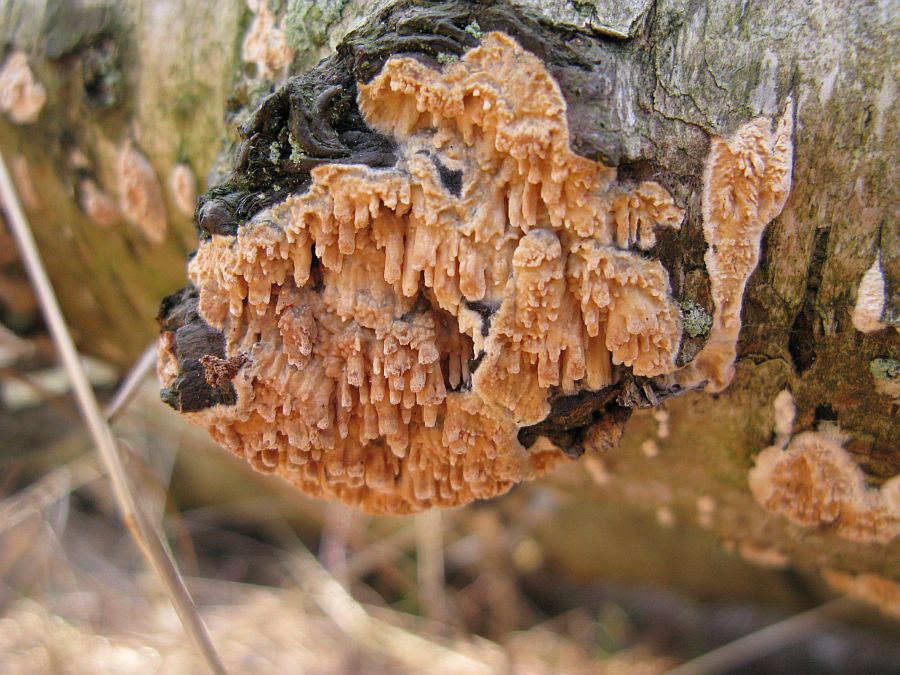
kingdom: Fungi
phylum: Basidiomycota
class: Agaricomycetes
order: Hymenochaetales
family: Schizoporaceae
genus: Xylodon
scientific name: Xylodon radula
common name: grovtandet kalkskind
